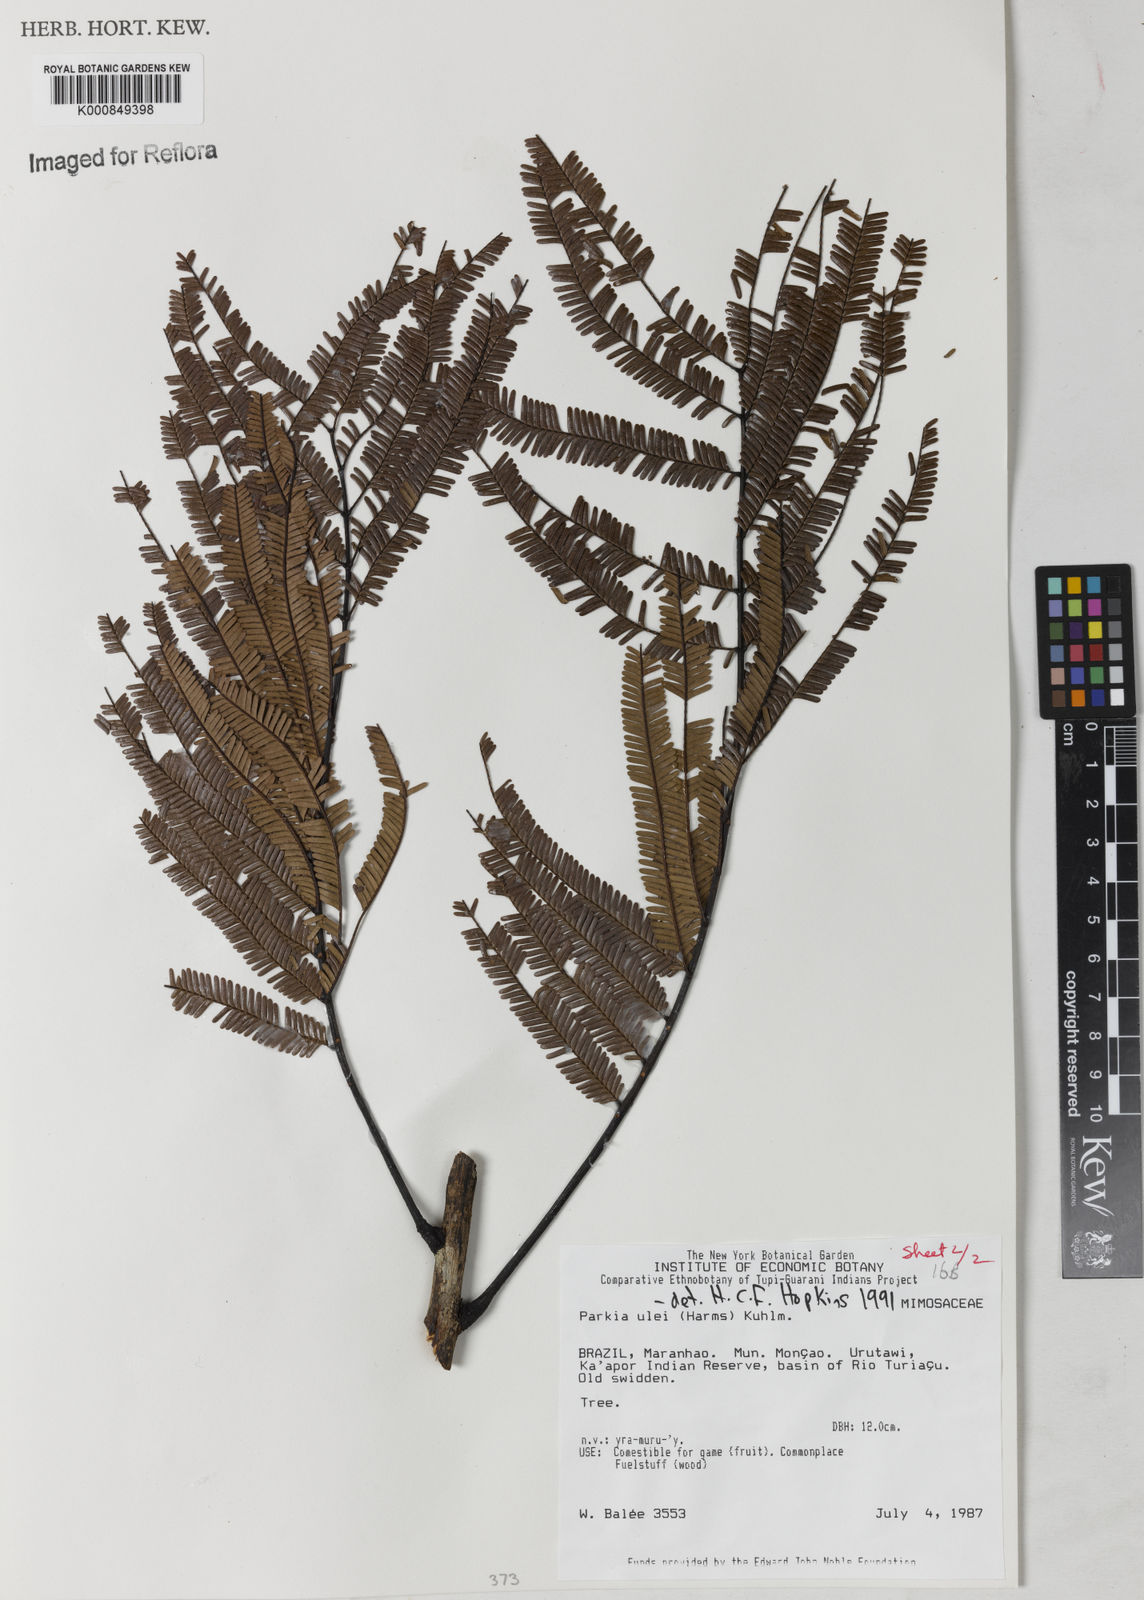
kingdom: Plantae
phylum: Tracheophyta
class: Magnoliopsida
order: Fabales
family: Fabaceae
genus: Parkia
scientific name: Parkia ulei
